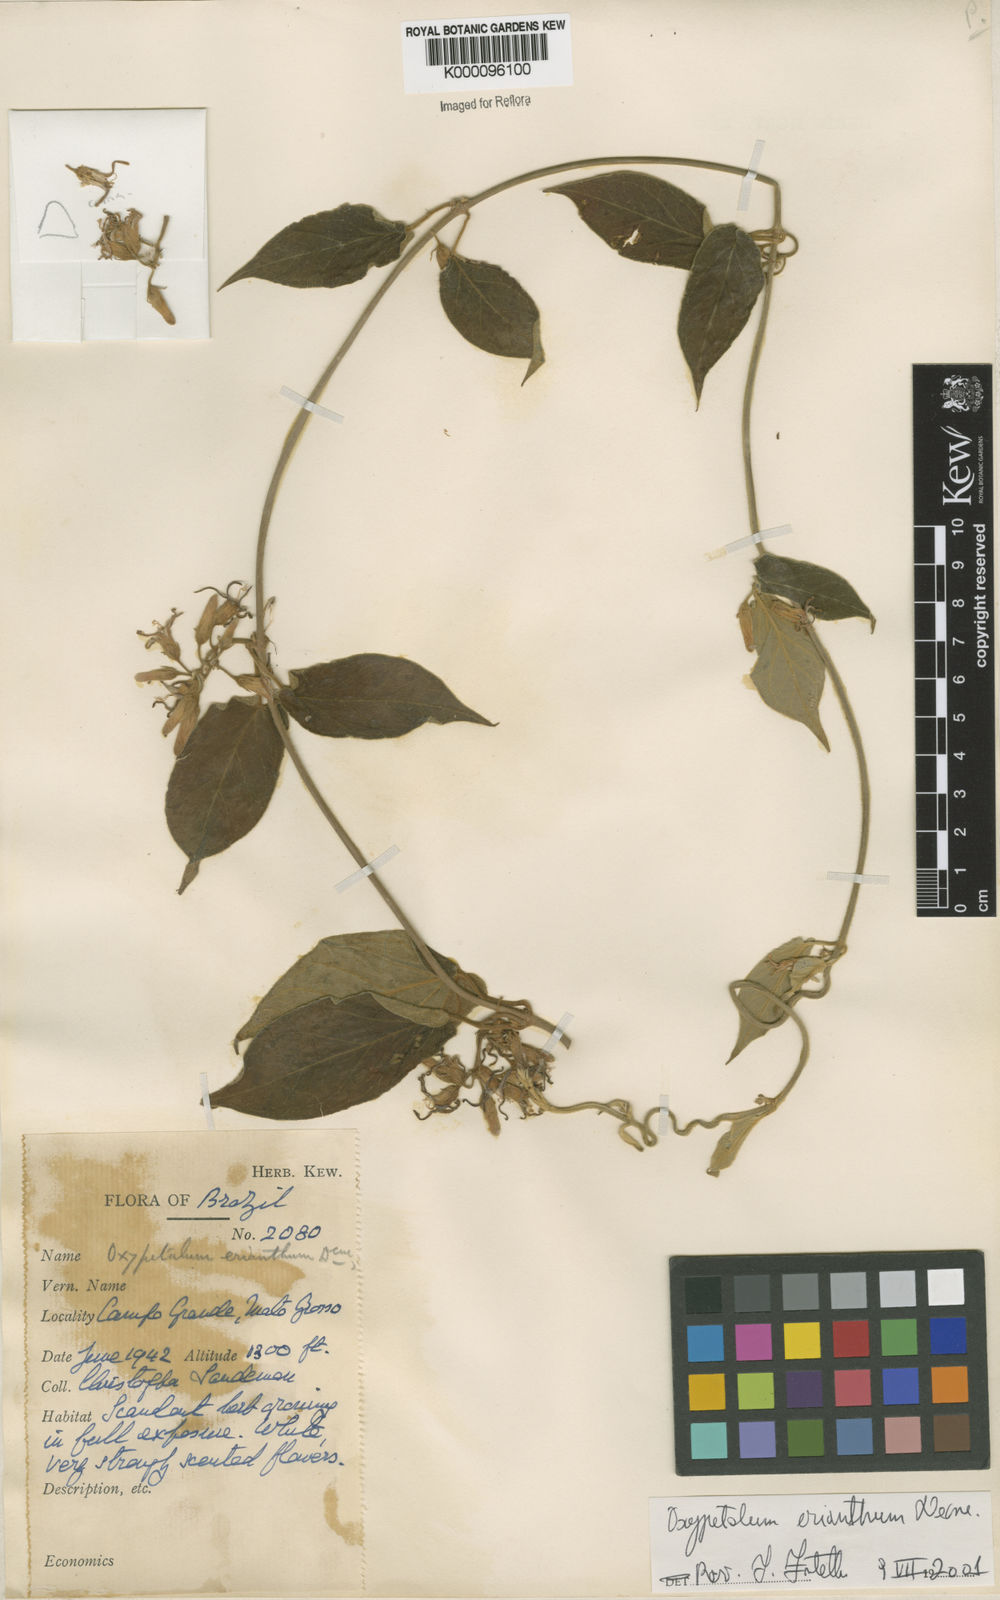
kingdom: Plantae
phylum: Tracheophyta
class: Magnoliopsida
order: Gentianales
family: Apocynaceae
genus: Oxypetalum
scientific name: Oxypetalum erianthum
